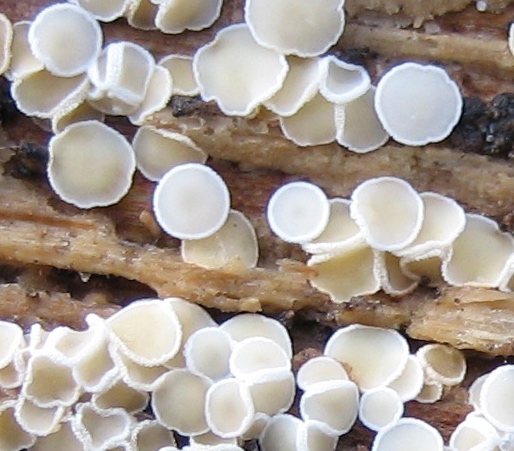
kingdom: Fungi
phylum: Ascomycota
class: Leotiomycetes
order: Helotiales
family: Lachnaceae
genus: Lachnum
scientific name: Lachnum
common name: frynseskive
